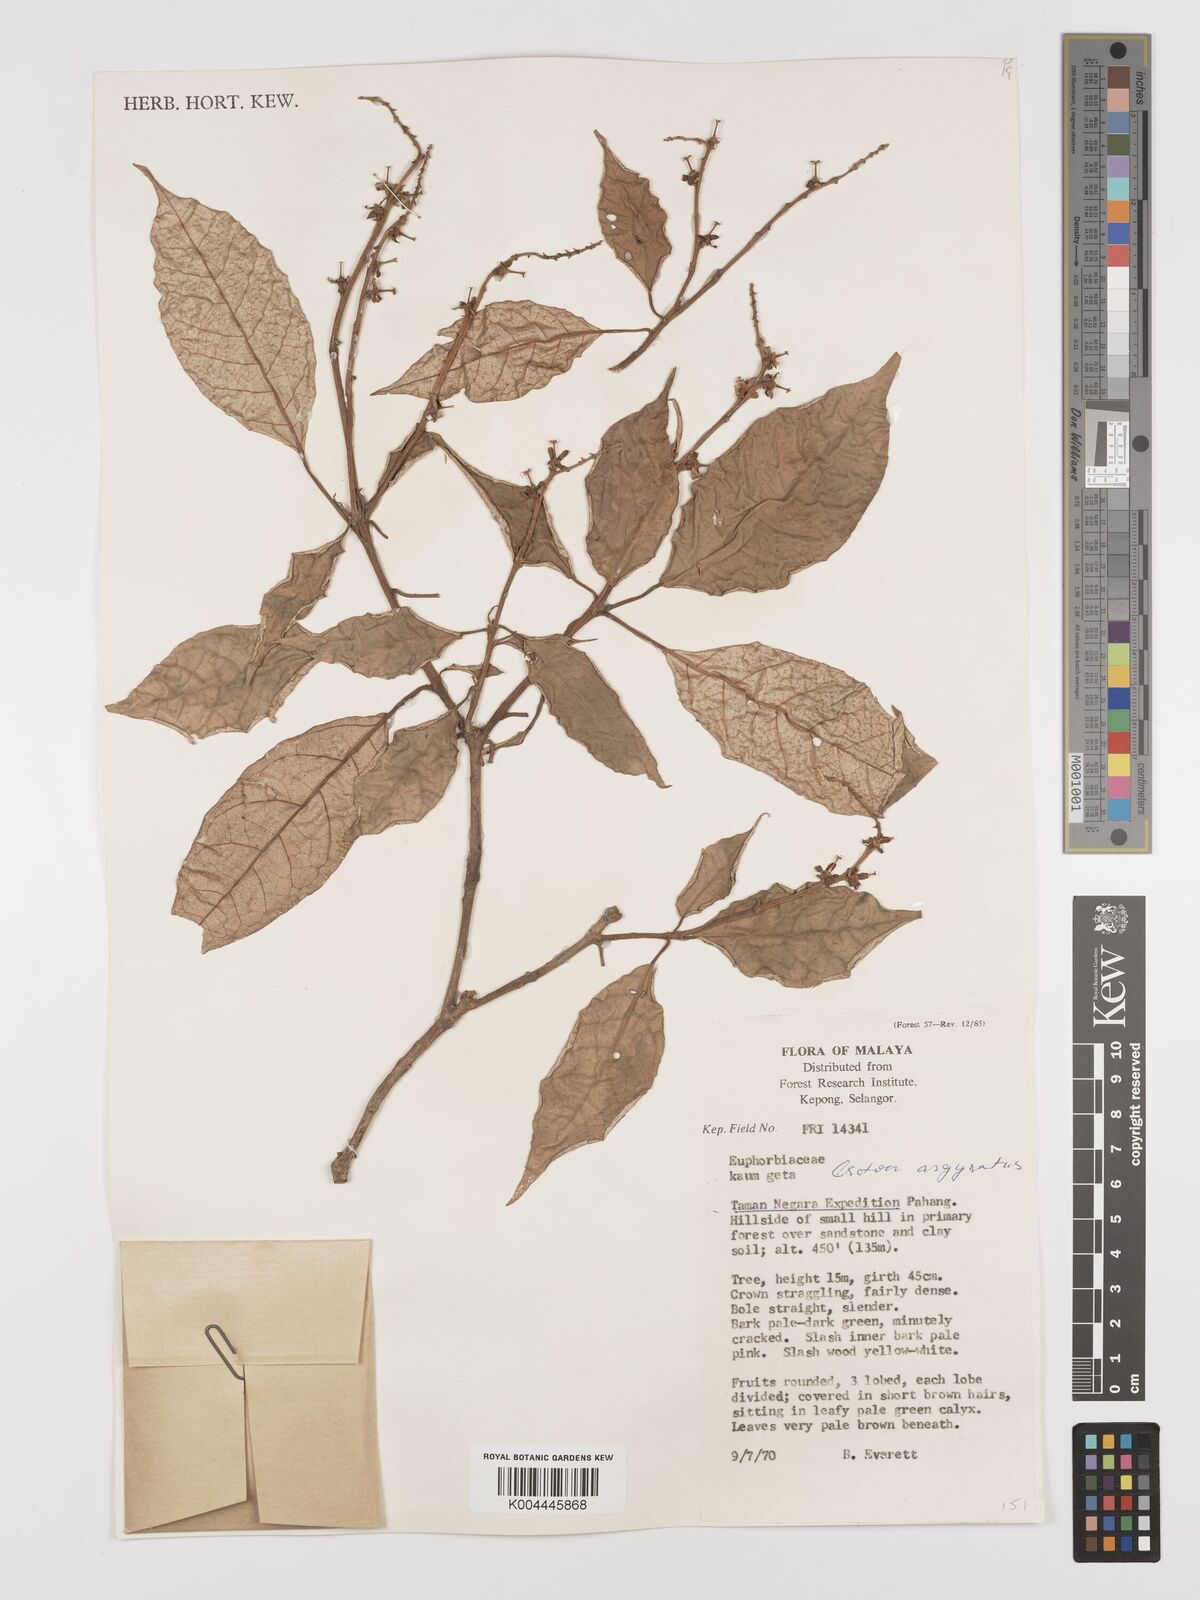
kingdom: Plantae
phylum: Tracheophyta
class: Magnoliopsida
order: Malpighiales
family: Euphorbiaceae
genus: Croton
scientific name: Croton argyratus
